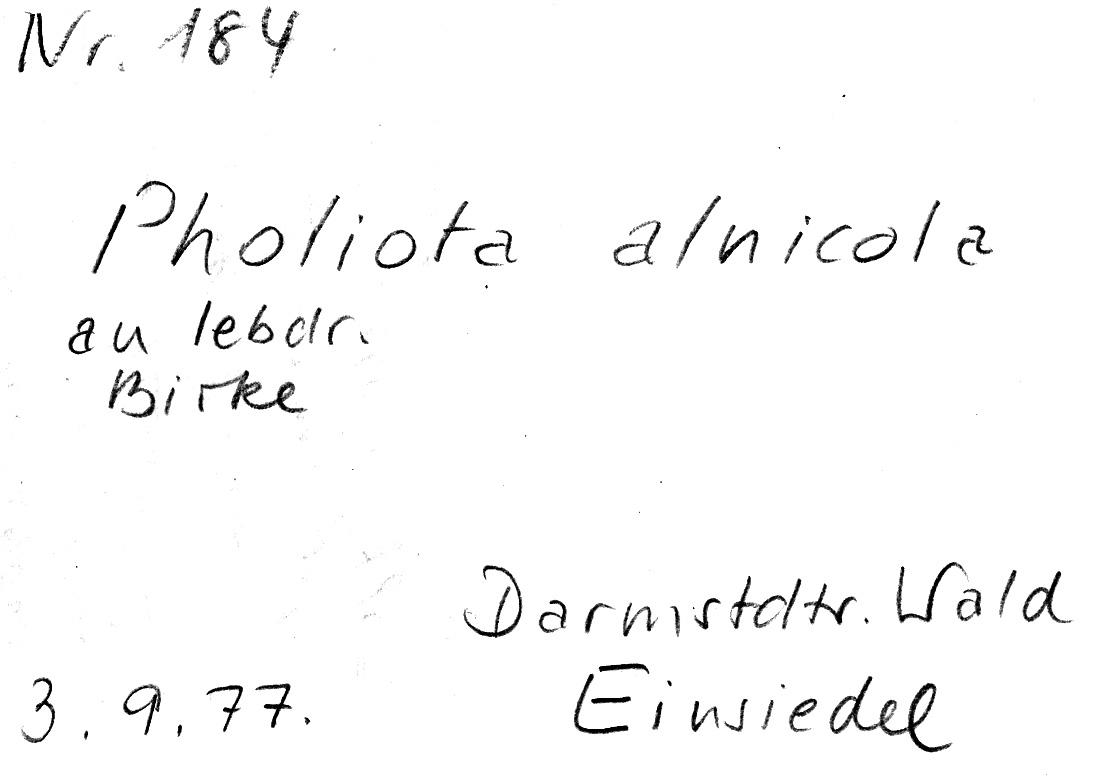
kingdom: Fungi
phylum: Basidiomycota
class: Agaricomycetes
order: Agaricales
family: Hymenogastraceae
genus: Flammula
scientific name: Flammula alnicola
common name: Alder scalycap
